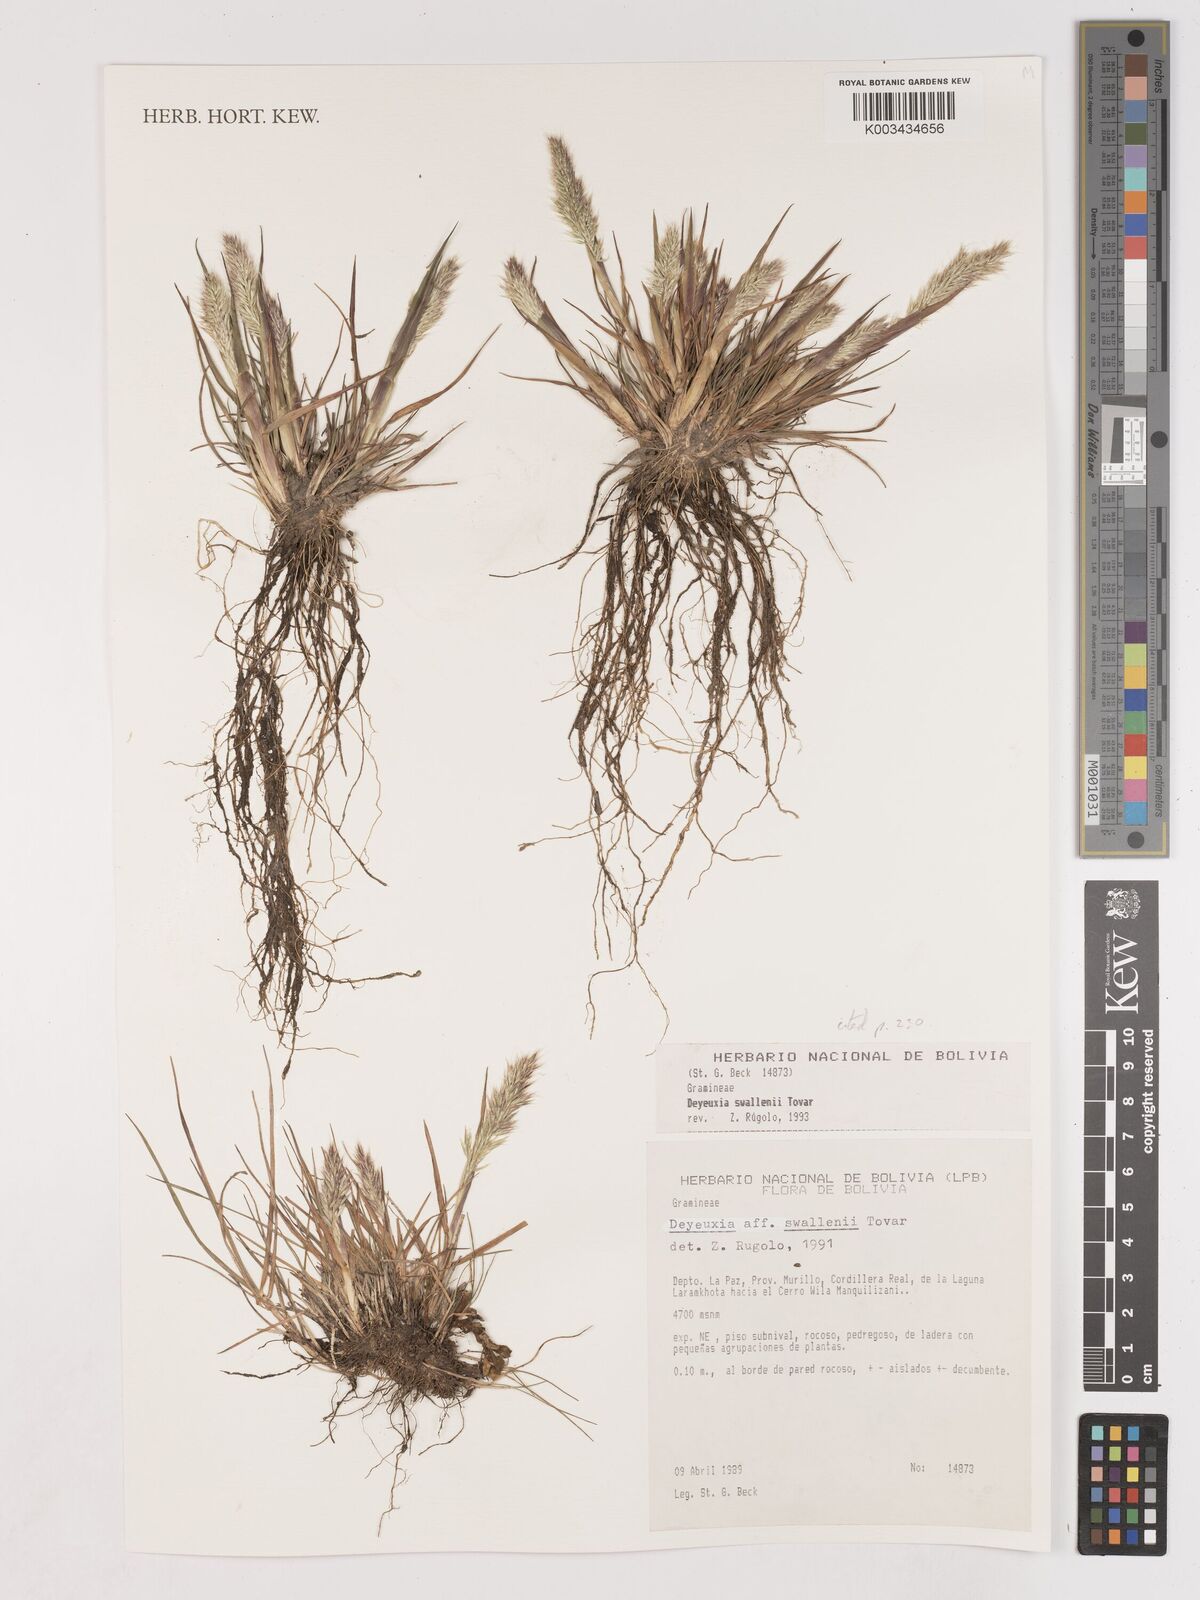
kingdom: Plantae
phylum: Tracheophyta
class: Liliopsida
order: Poales
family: Poaceae
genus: Cinnagrostis
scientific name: Cinnagrostis heterophylla
